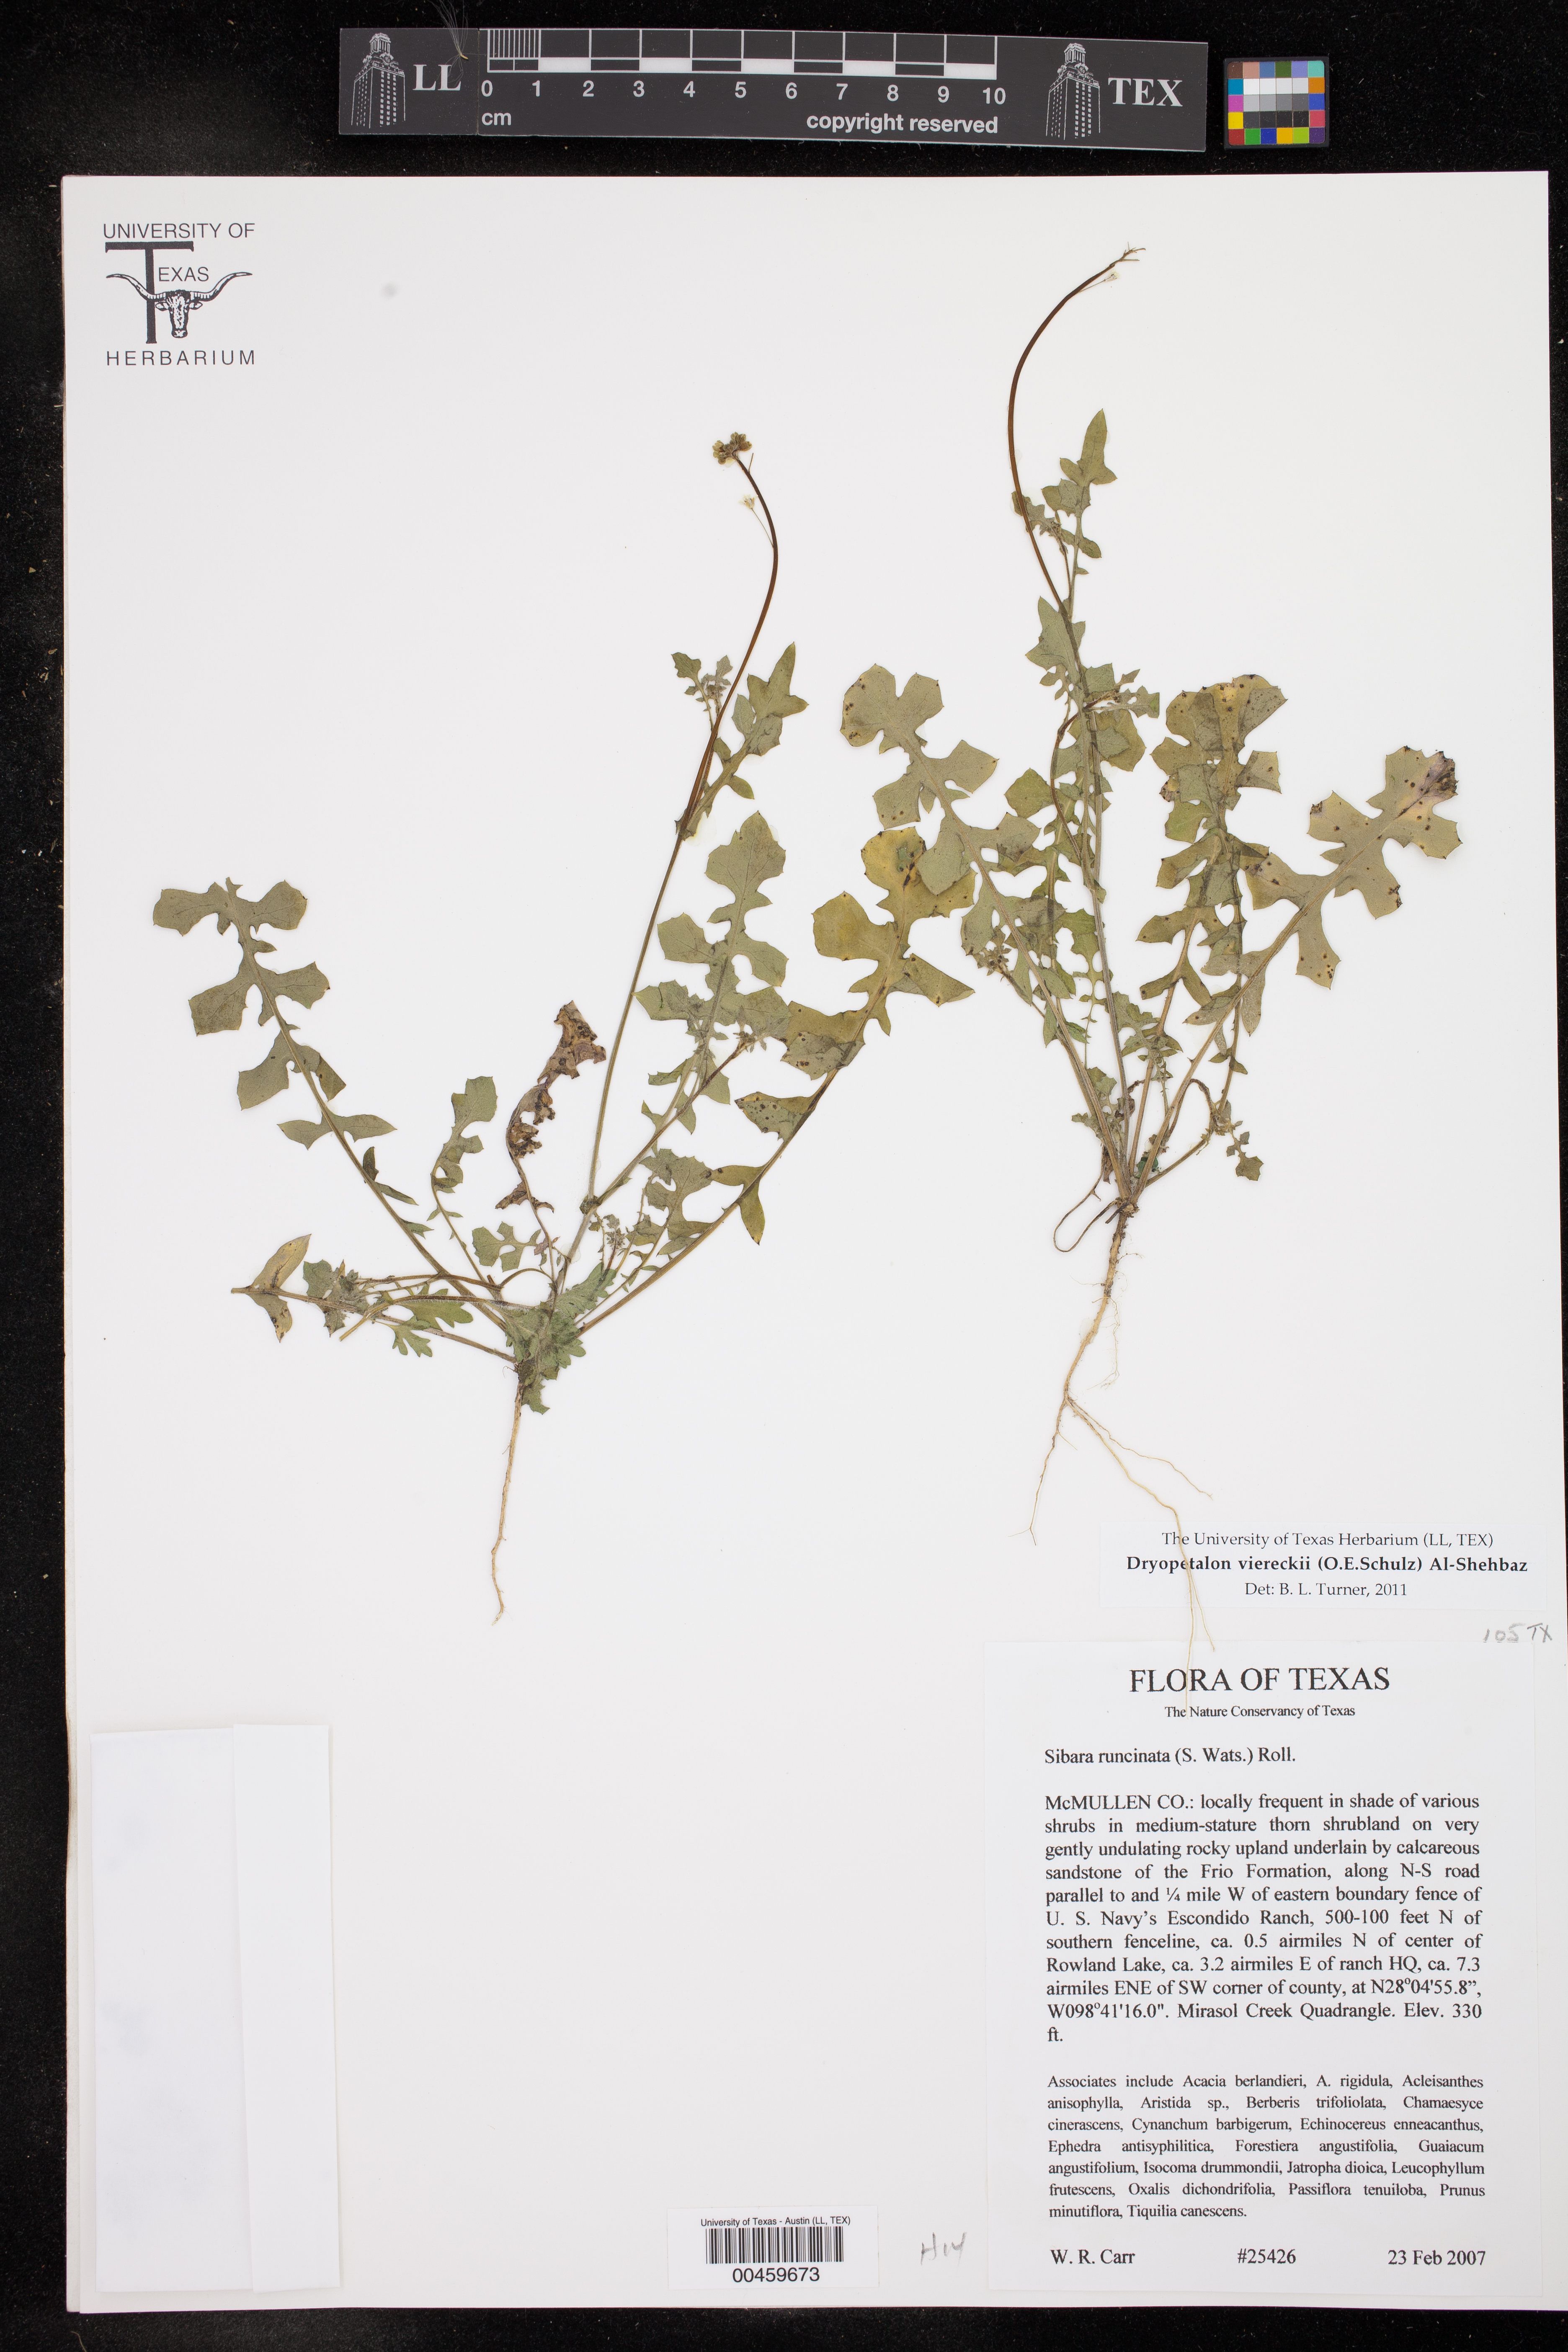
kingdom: Plantae
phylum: Tracheophyta
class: Magnoliopsida
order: Brassicales
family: Brassicaceae
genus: Phravenia
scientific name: Phravenia viereckii
